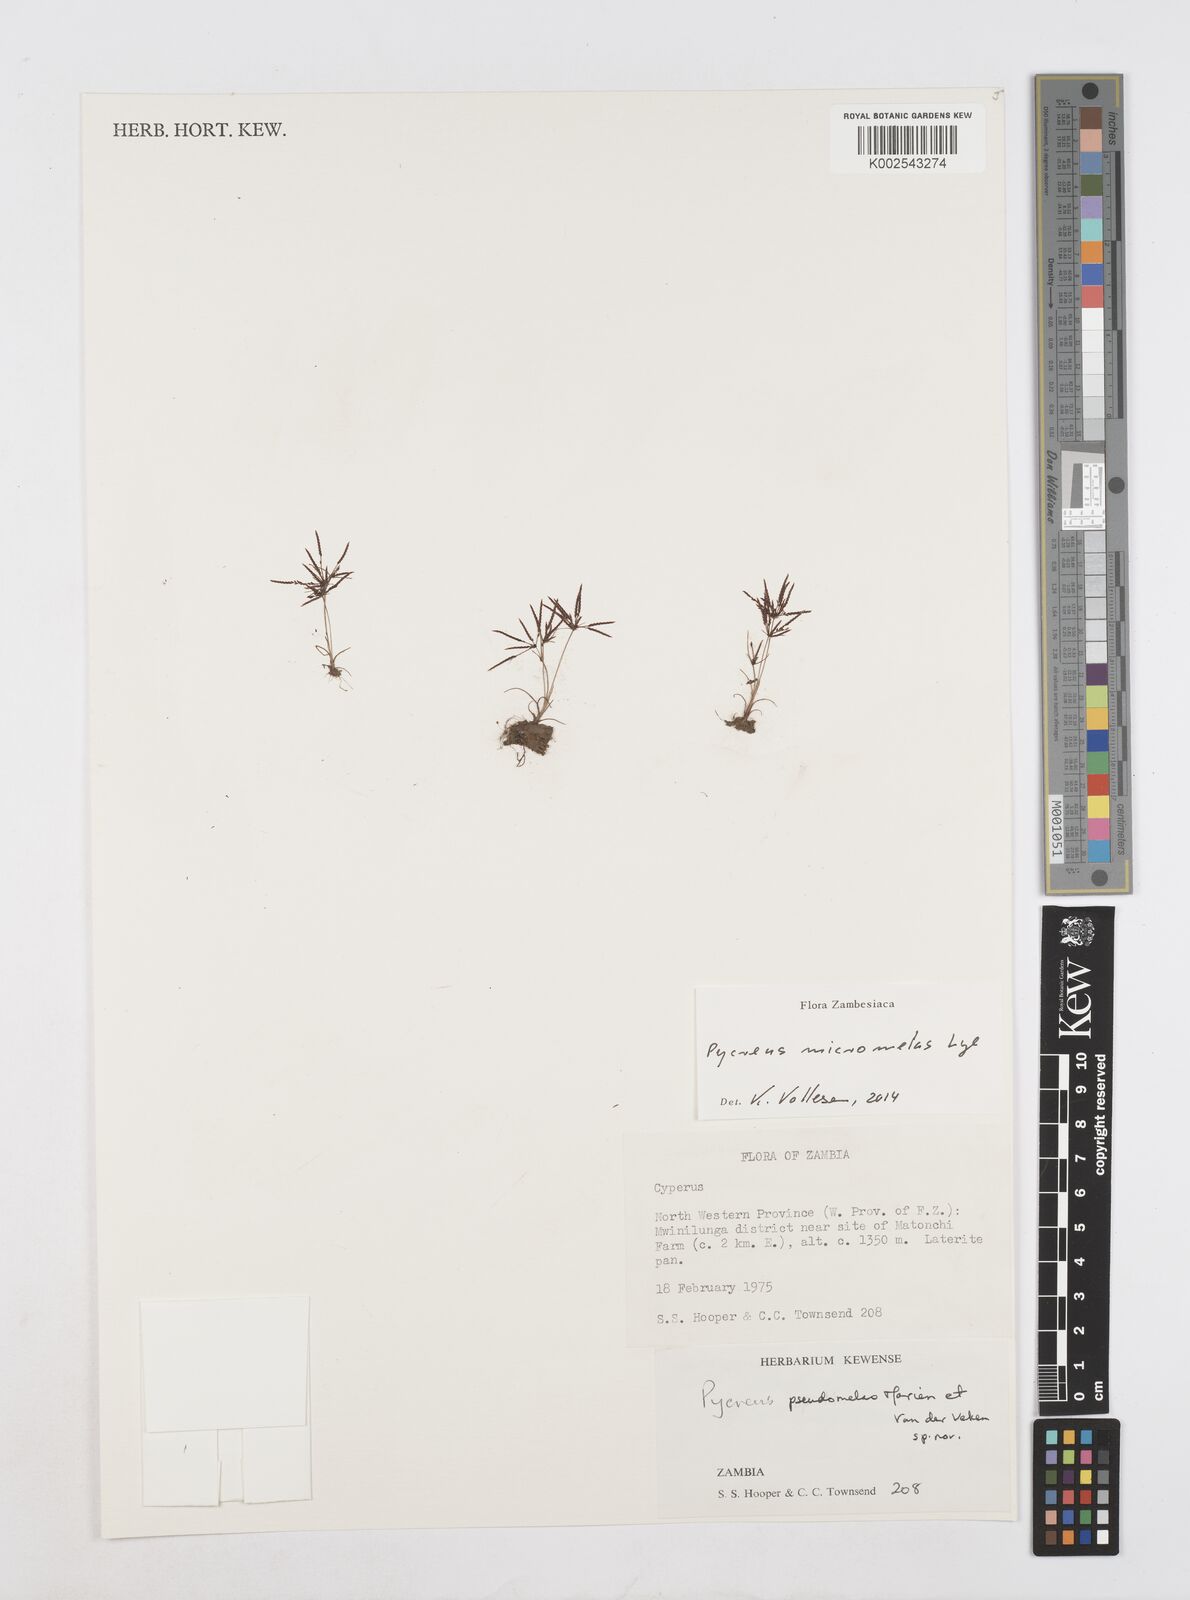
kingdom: Plantae
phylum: Tracheophyta
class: Liliopsida
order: Poales
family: Cyperaceae
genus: Cyperus
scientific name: Cyperus micromelas
